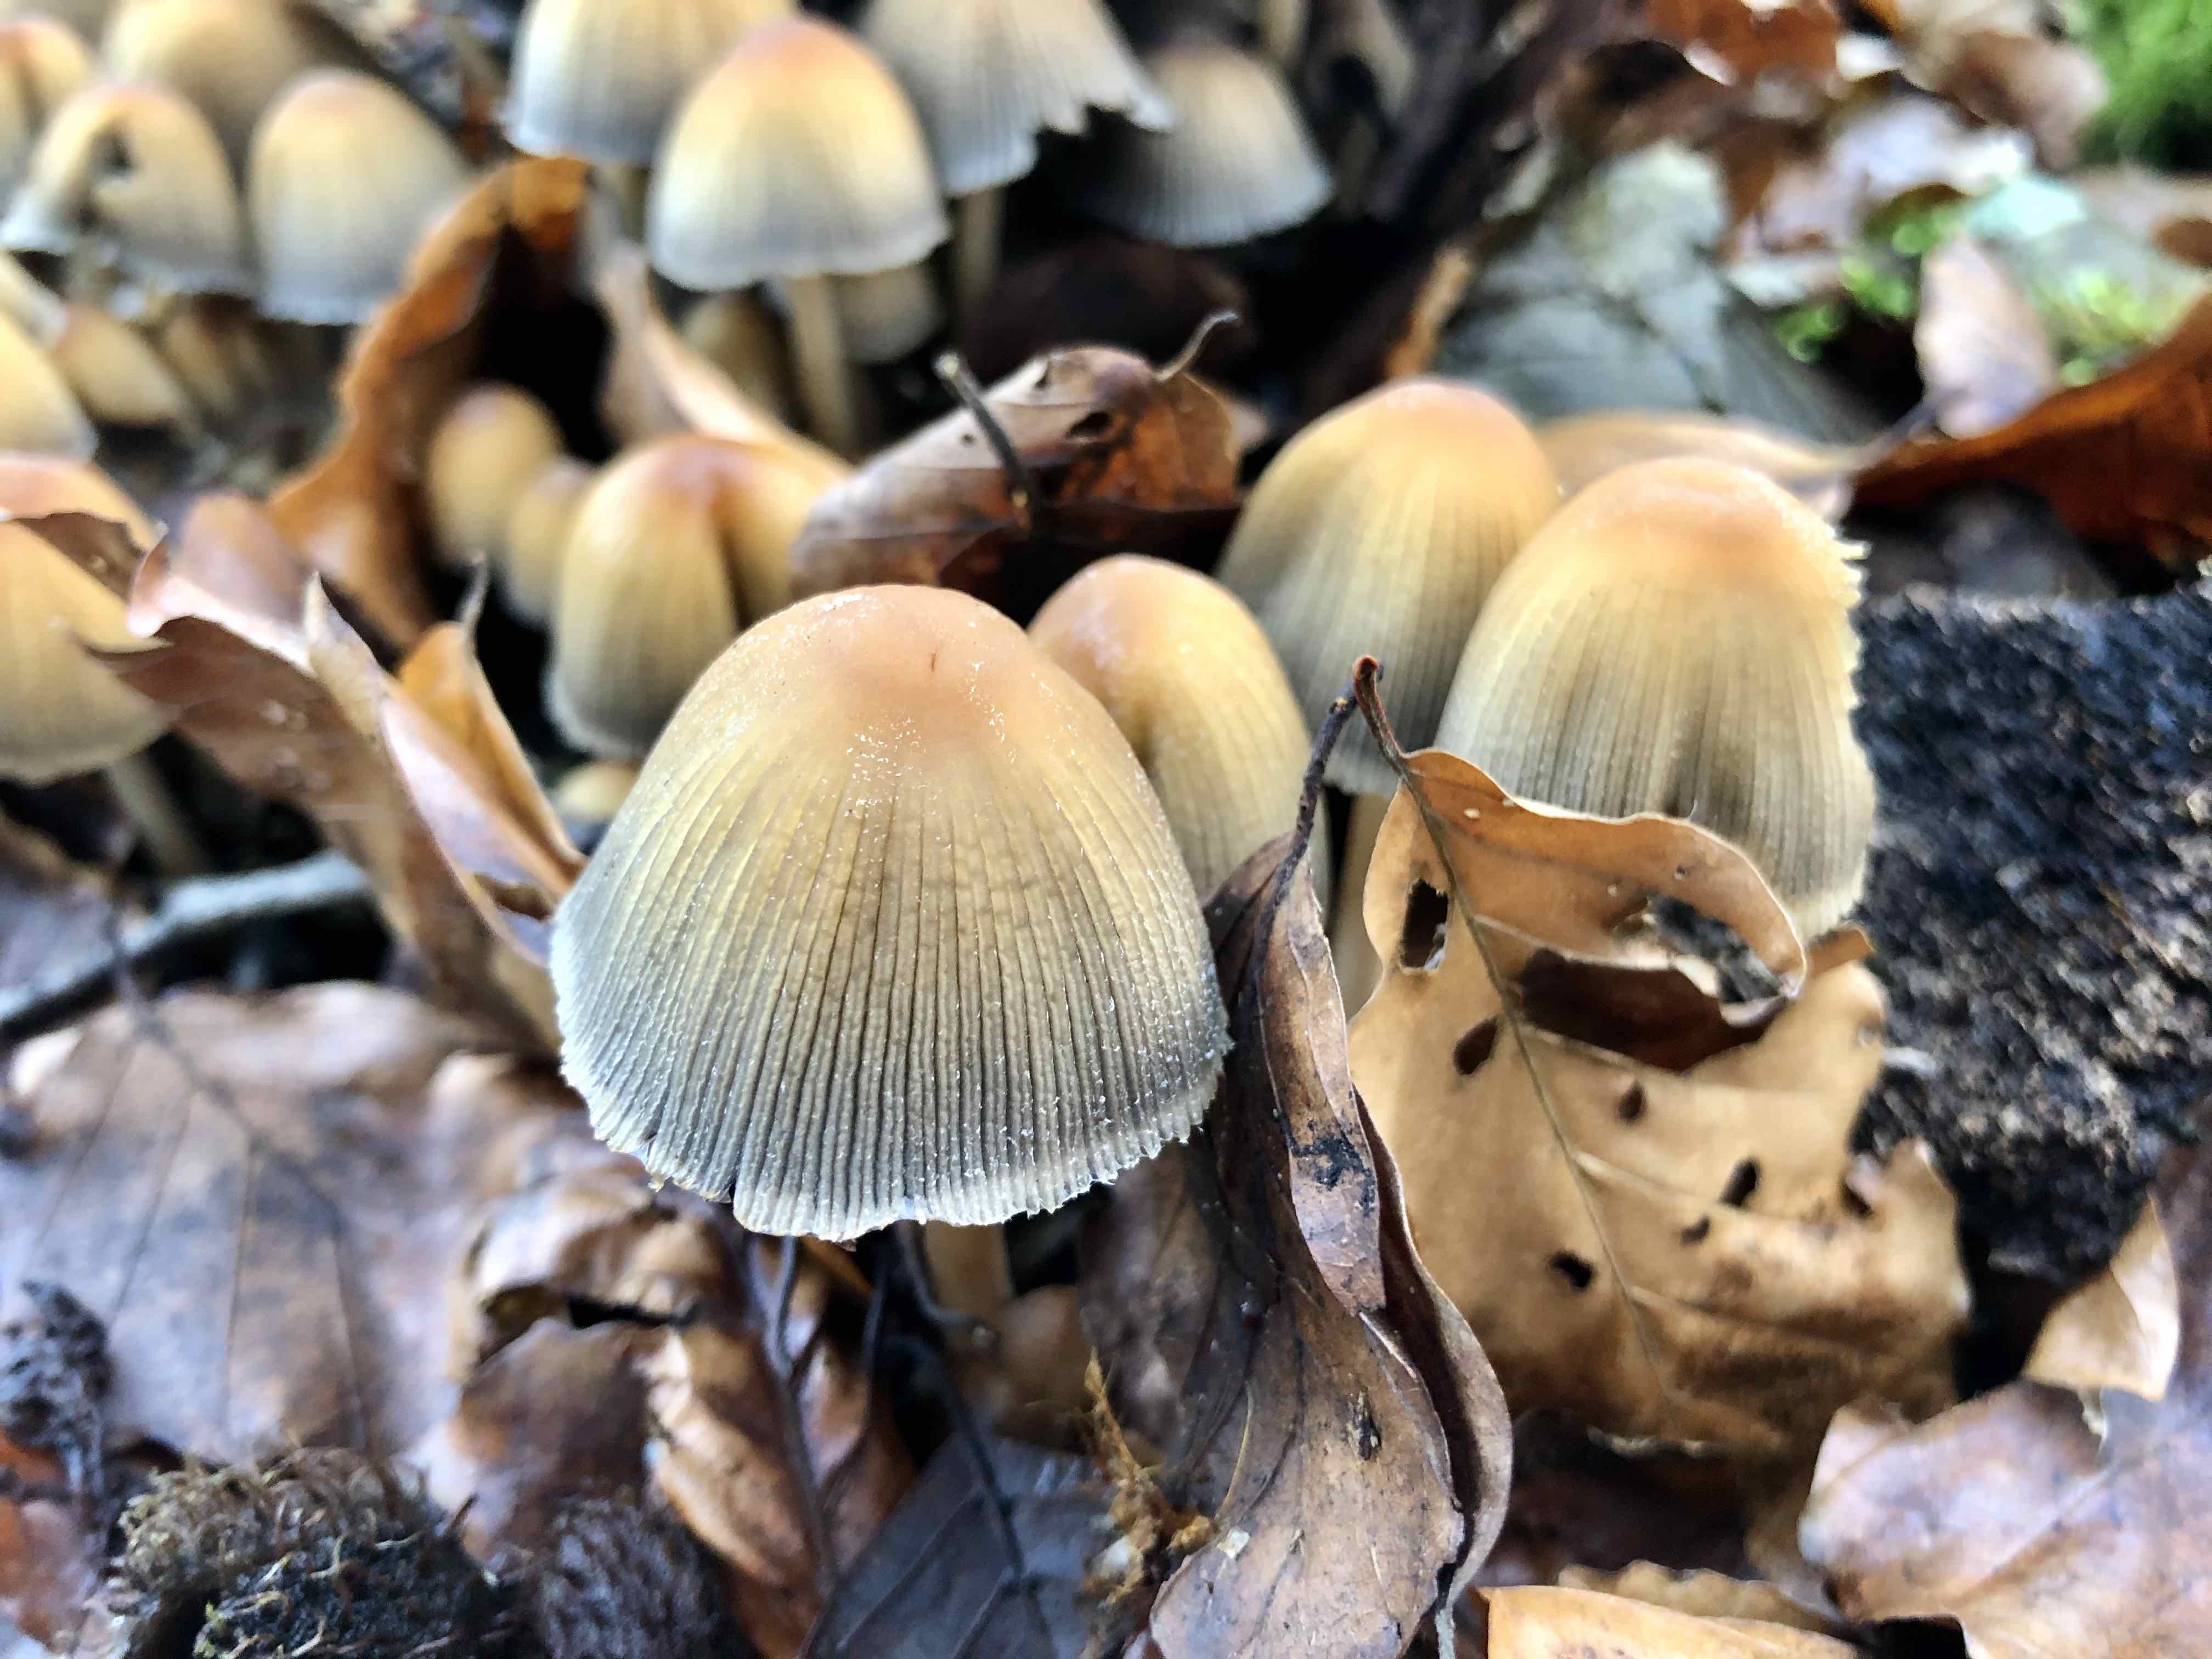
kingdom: Fungi
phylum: Basidiomycota
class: Agaricomycetes
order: Agaricales
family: Psathyrellaceae
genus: Coprinellus
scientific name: Coprinellus micaceus
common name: glimmer-blækhat
